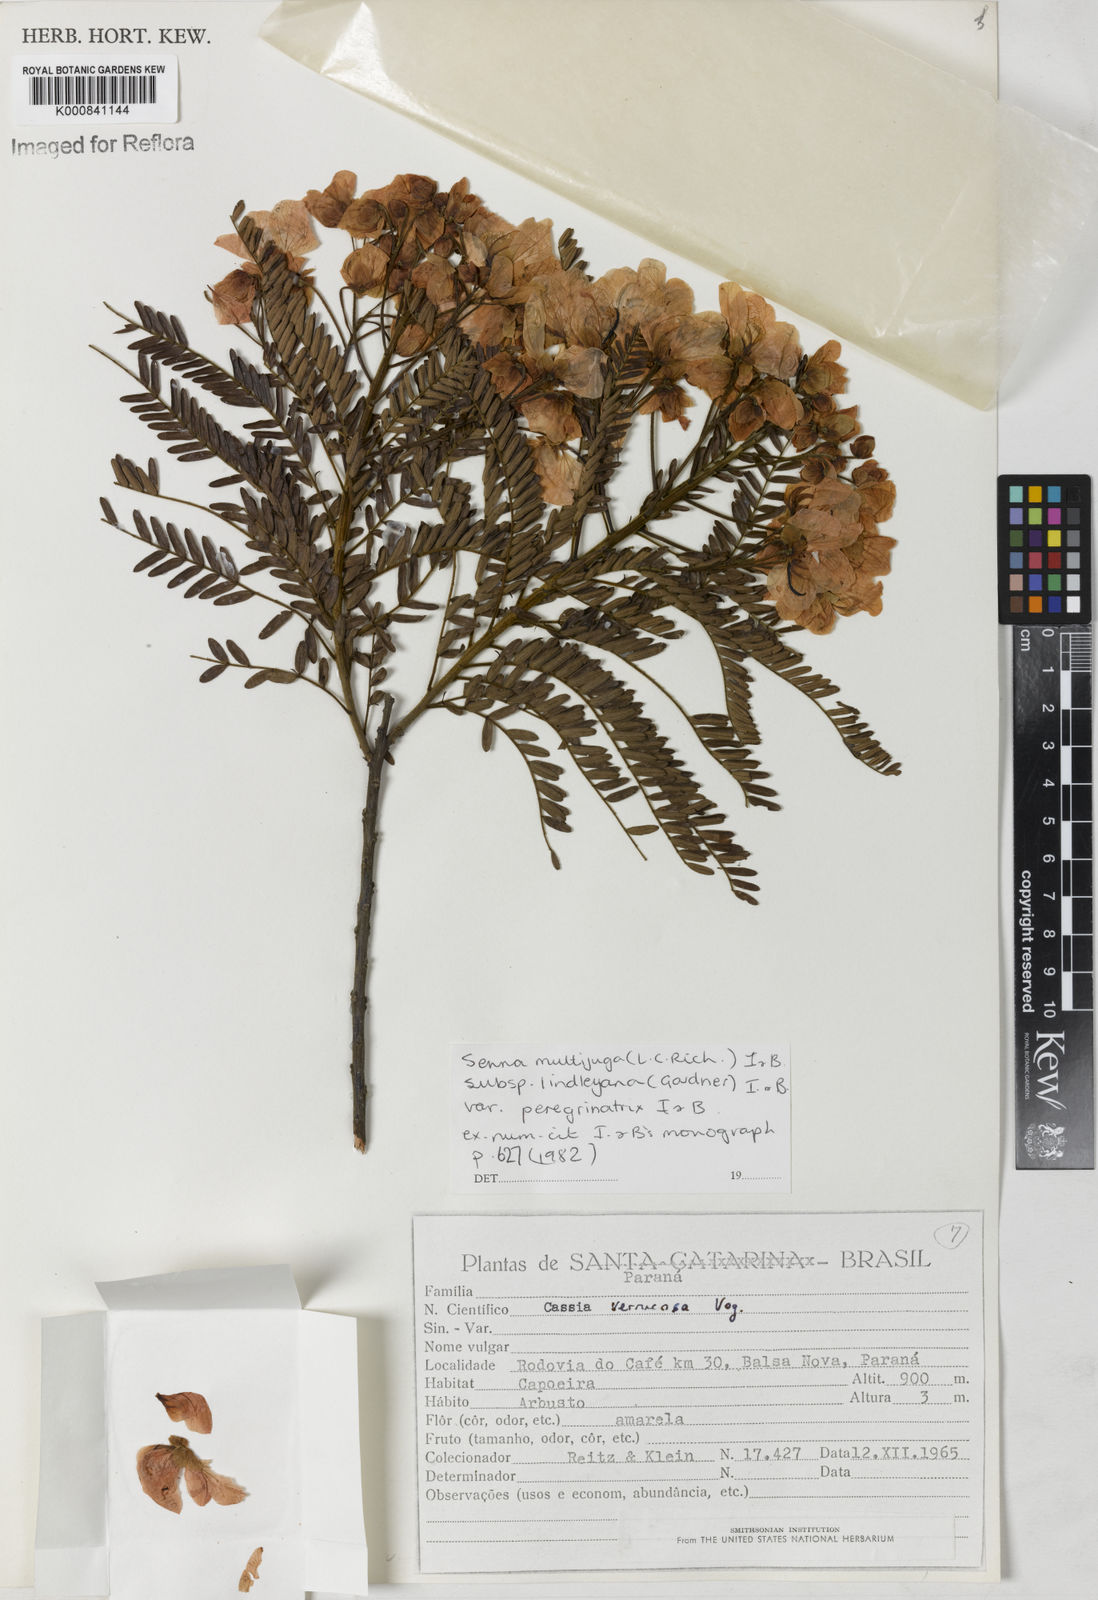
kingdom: Plantae
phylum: Tracheophyta
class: Magnoliopsida
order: Fabales
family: Fabaceae
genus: Senna
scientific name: Senna multijuga
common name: False sicklepod
